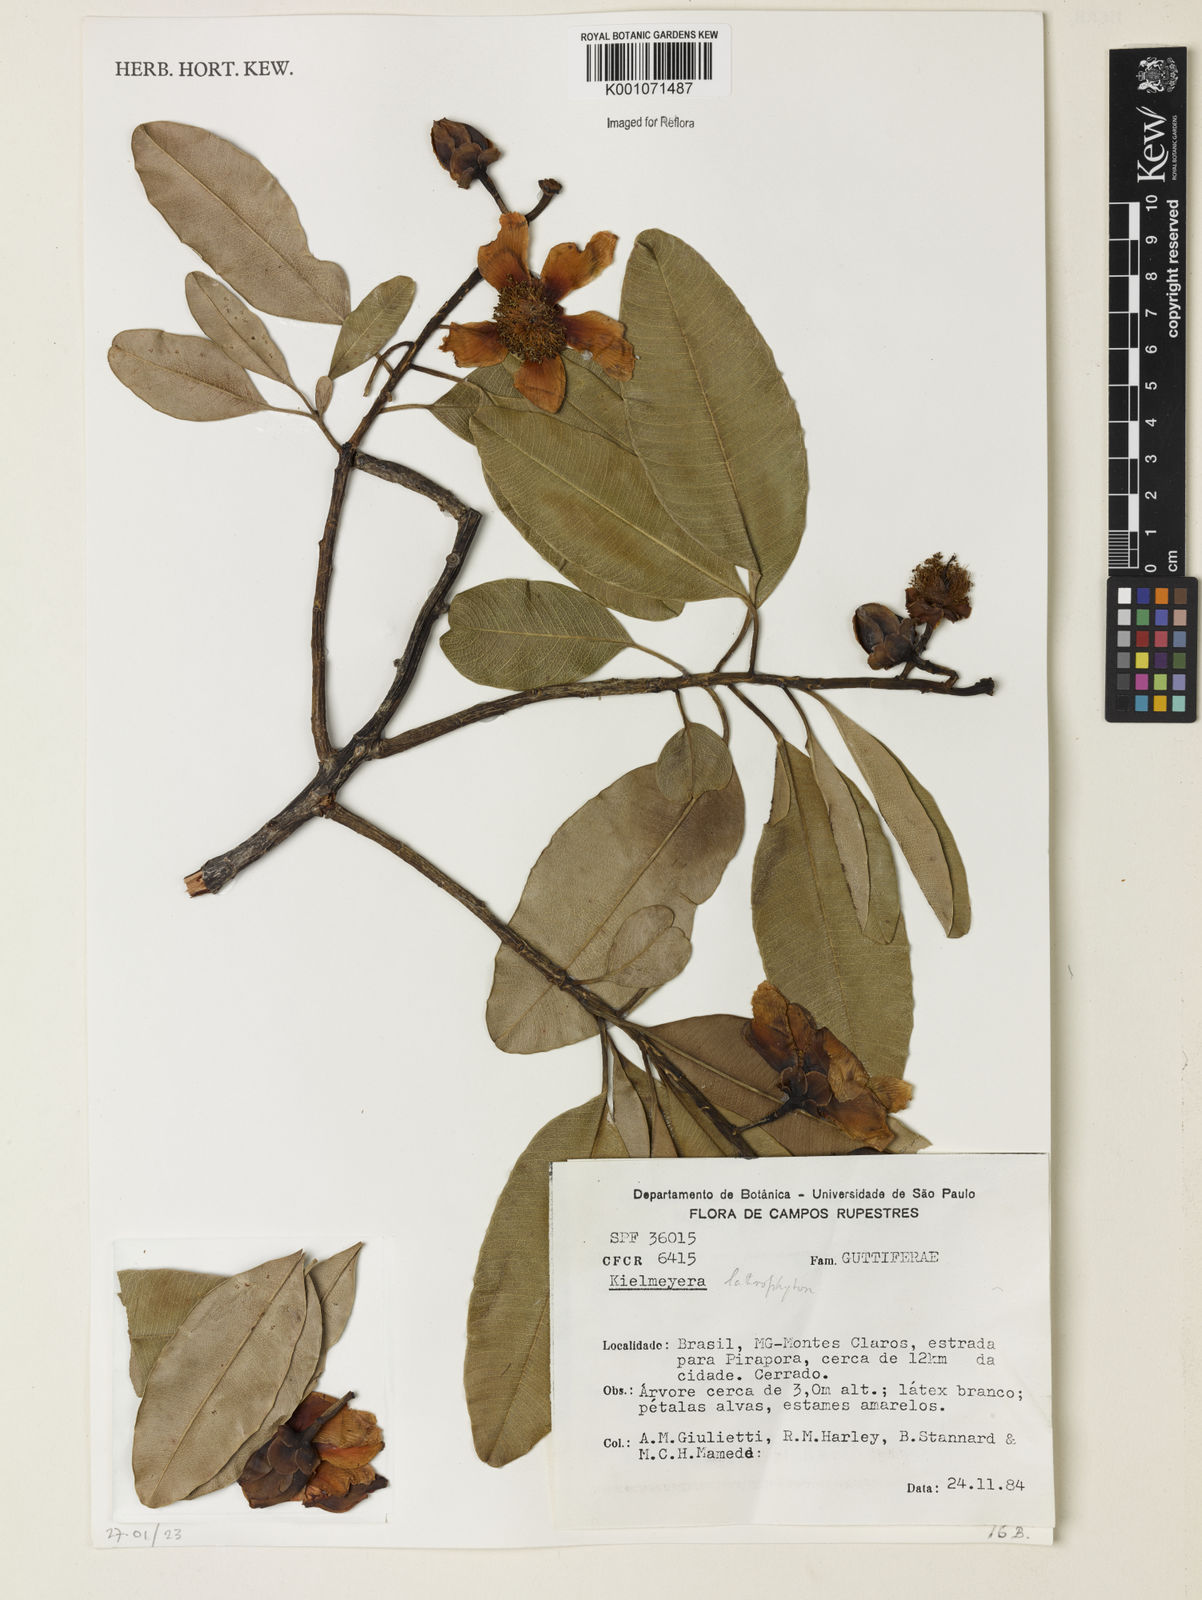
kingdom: Plantae
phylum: Tracheophyta
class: Magnoliopsida
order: Malpighiales
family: Calophyllaceae
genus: Kielmeyera
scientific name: Kielmeyera lathrophyton
